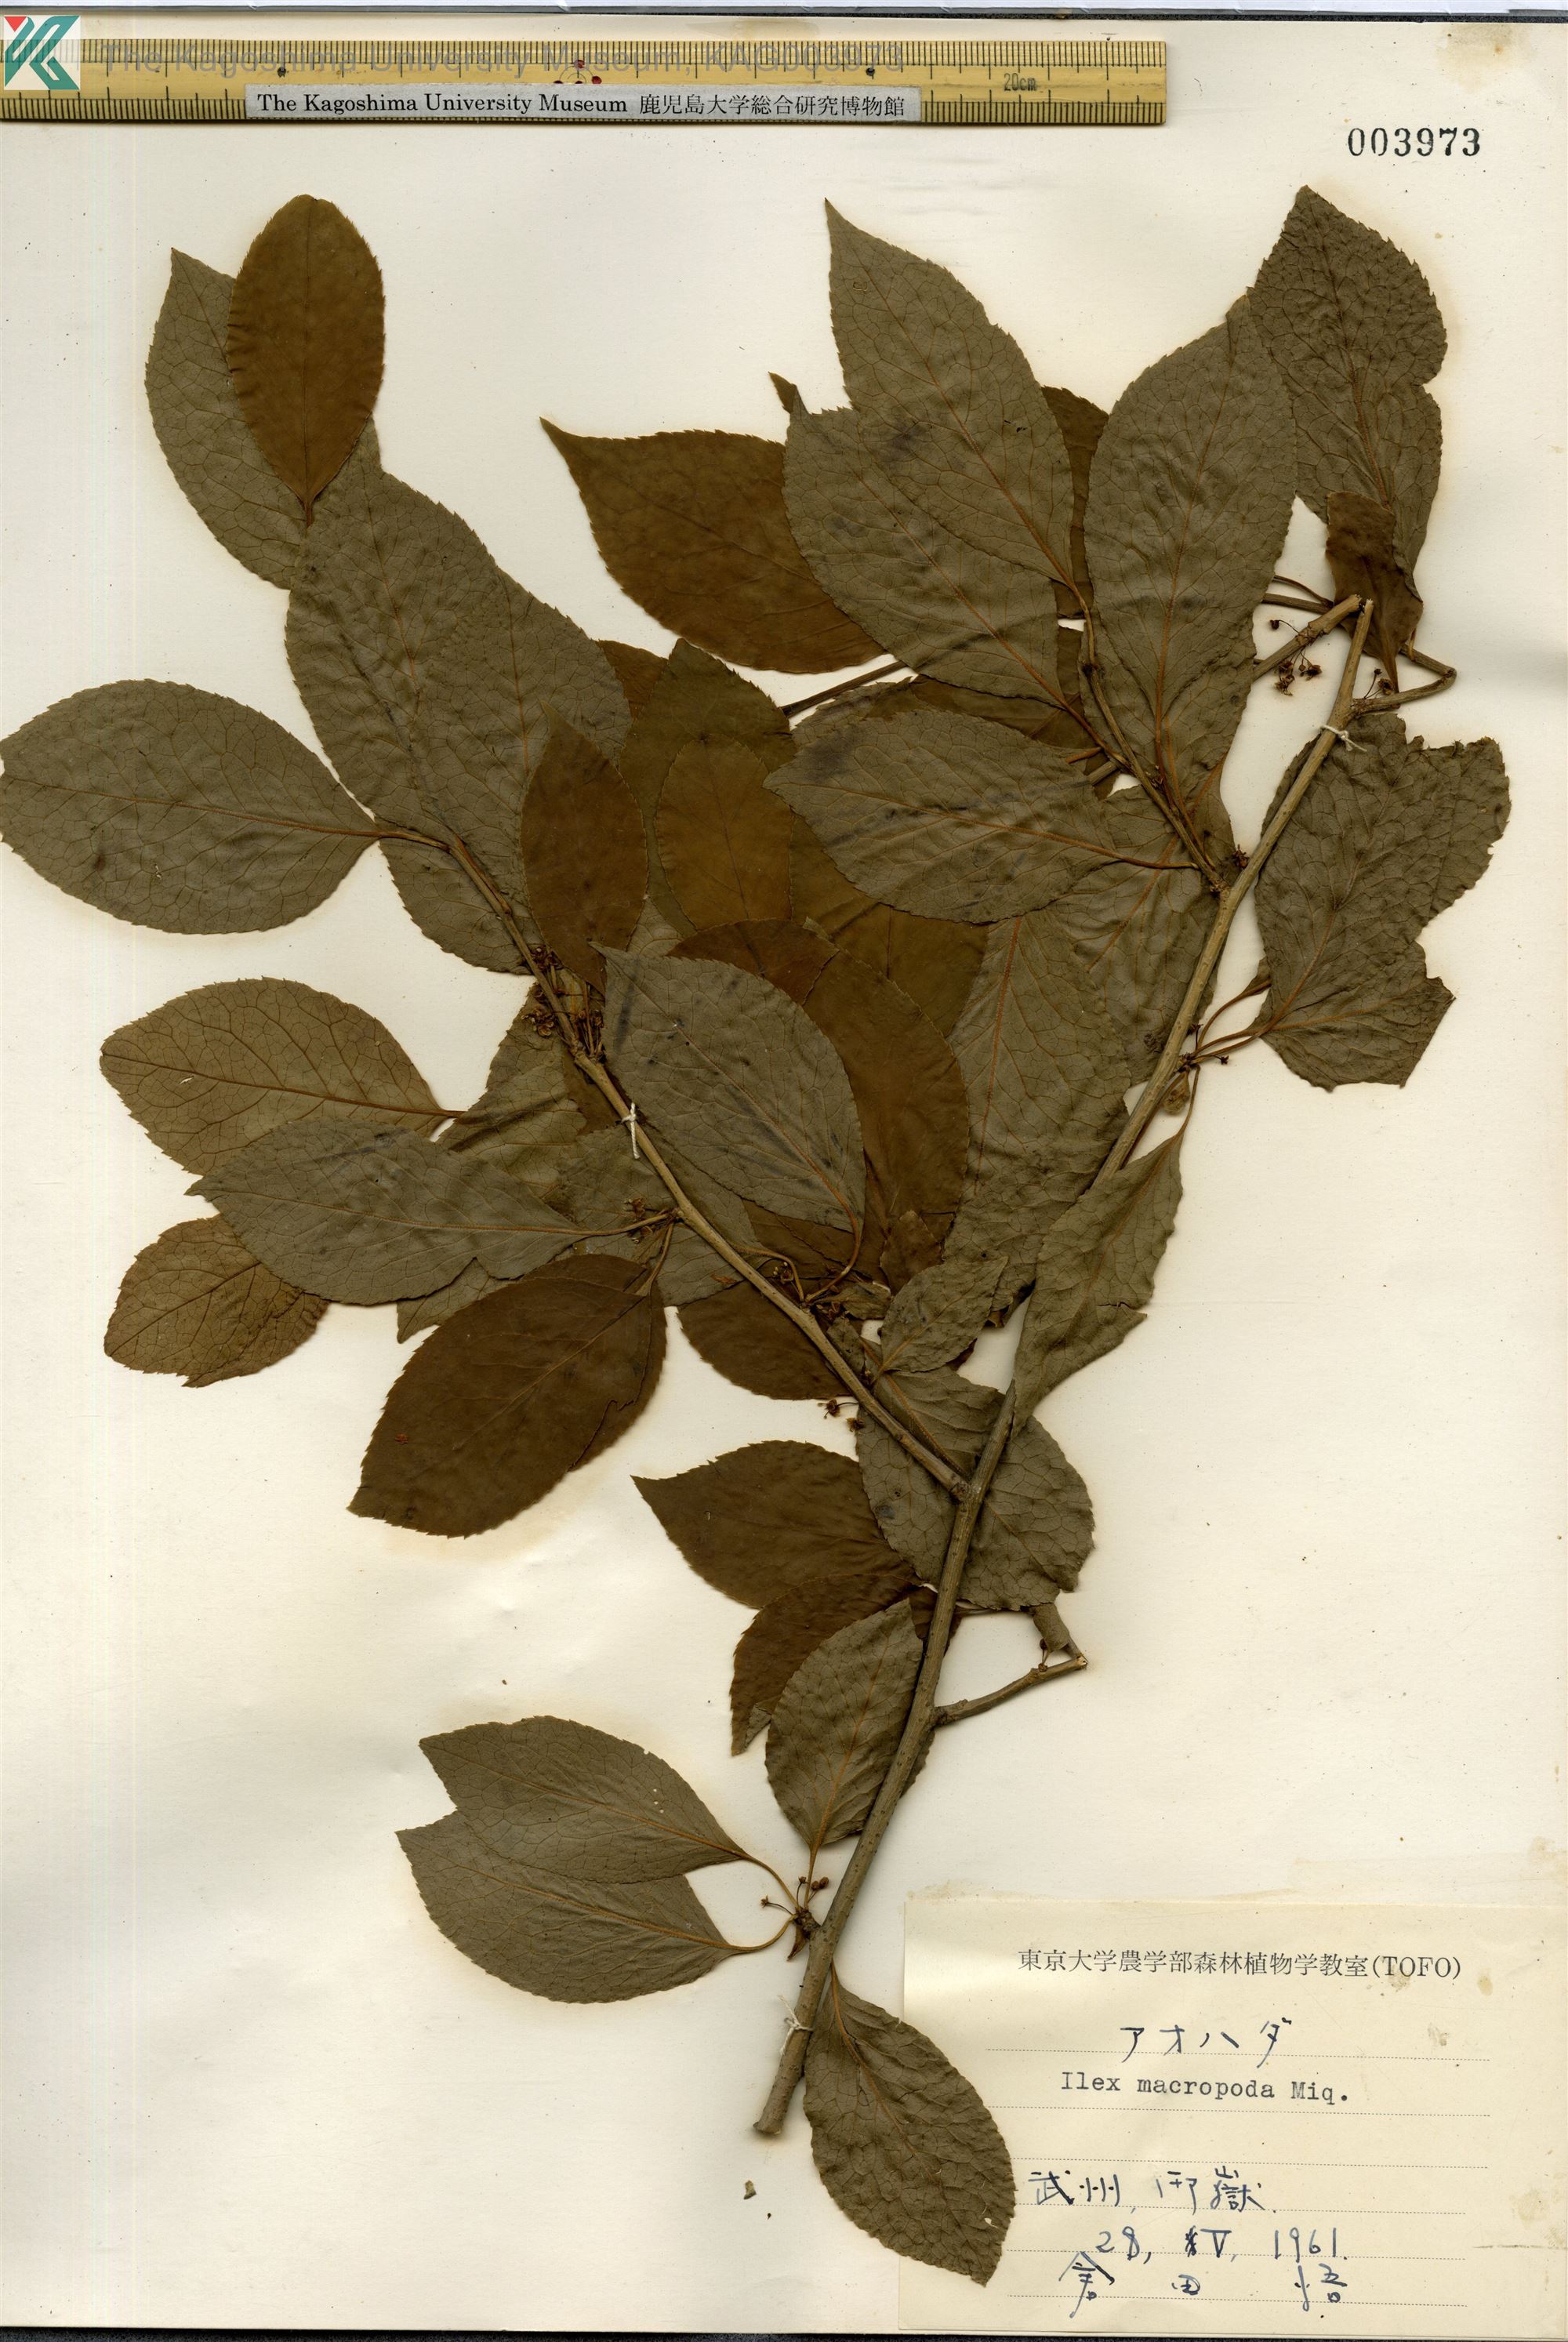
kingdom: Plantae
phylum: Tracheophyta
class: Magnoliopsida
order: Aquifoliales
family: Aquifoliaceae
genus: Ilex
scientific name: Ilex macropoda
